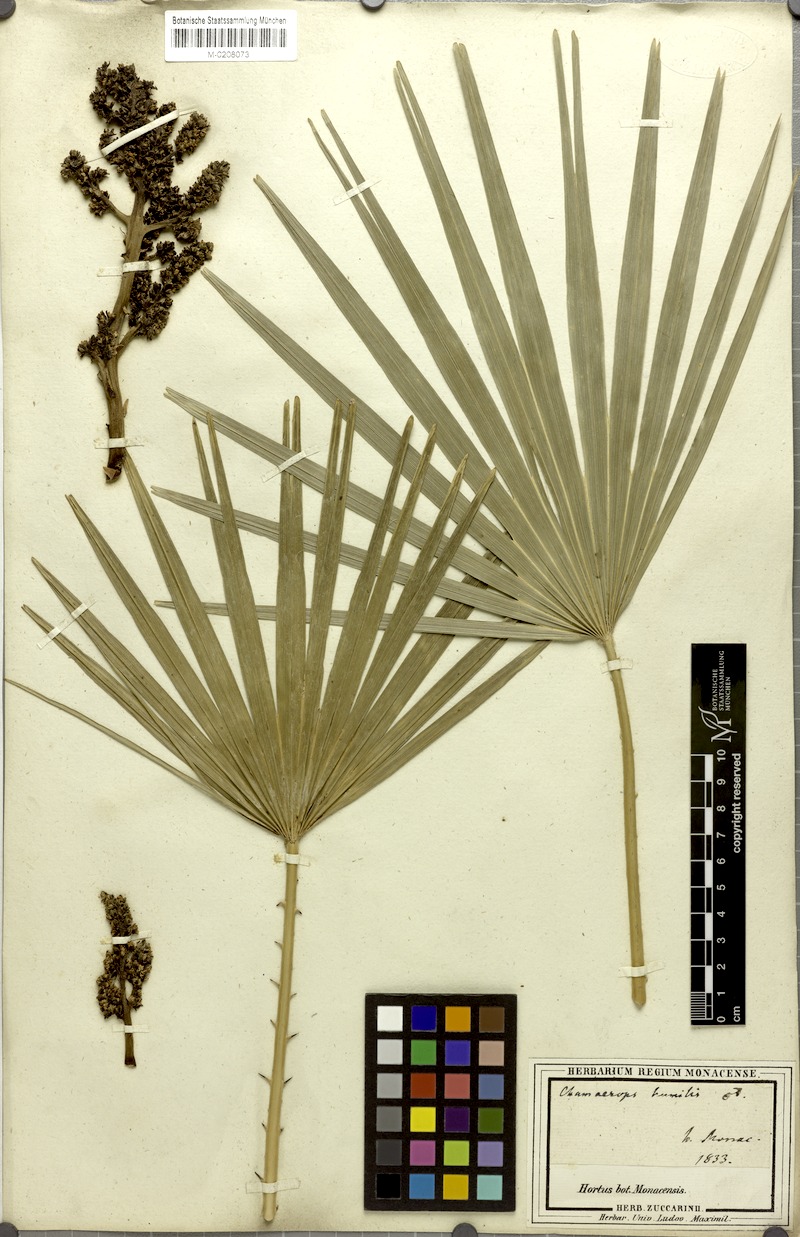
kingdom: Plantae
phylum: Tracheophyta
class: Liliopsida
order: Arecales
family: Arecaceae
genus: Chamaerops
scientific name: Chamaerops humilis
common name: Dwarf fan palm
